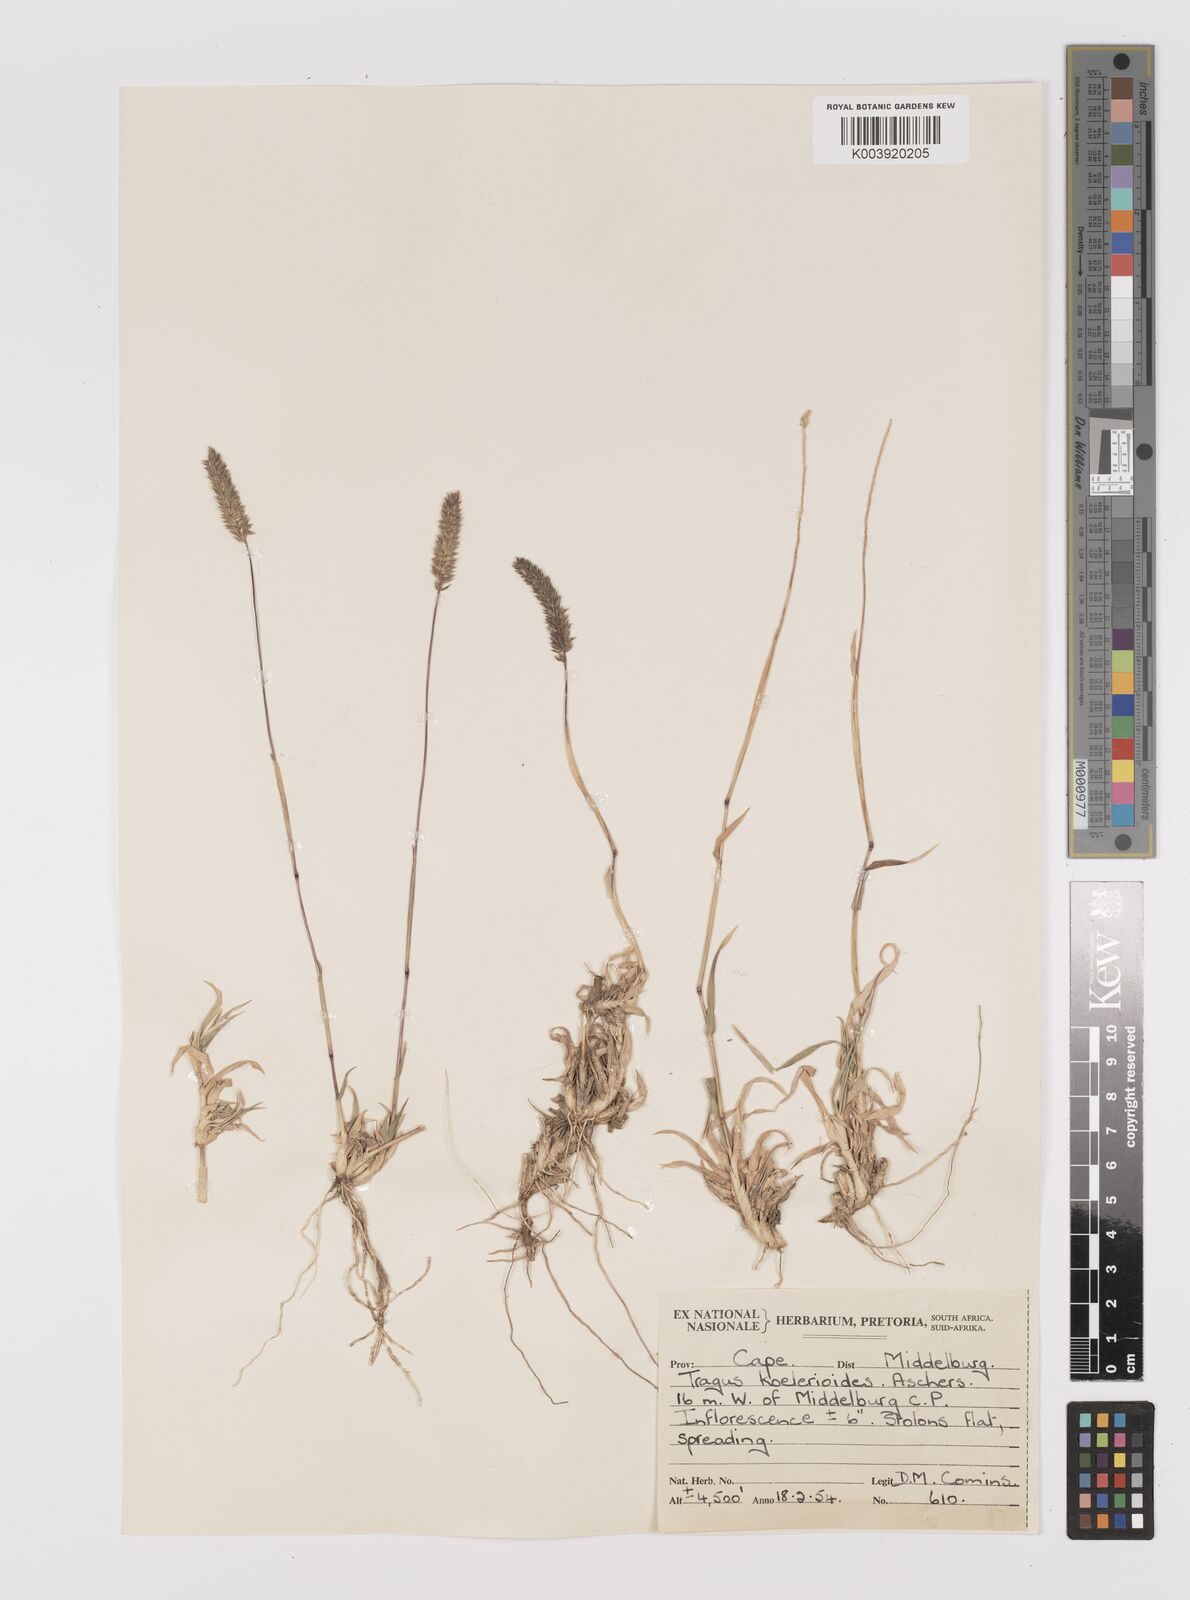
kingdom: Plantae
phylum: Tracheophyta
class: Liliopsida
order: Poales
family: Poaceae
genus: Tragus
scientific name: Tragus koelerioides
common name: Creeping carrot-seed grass
